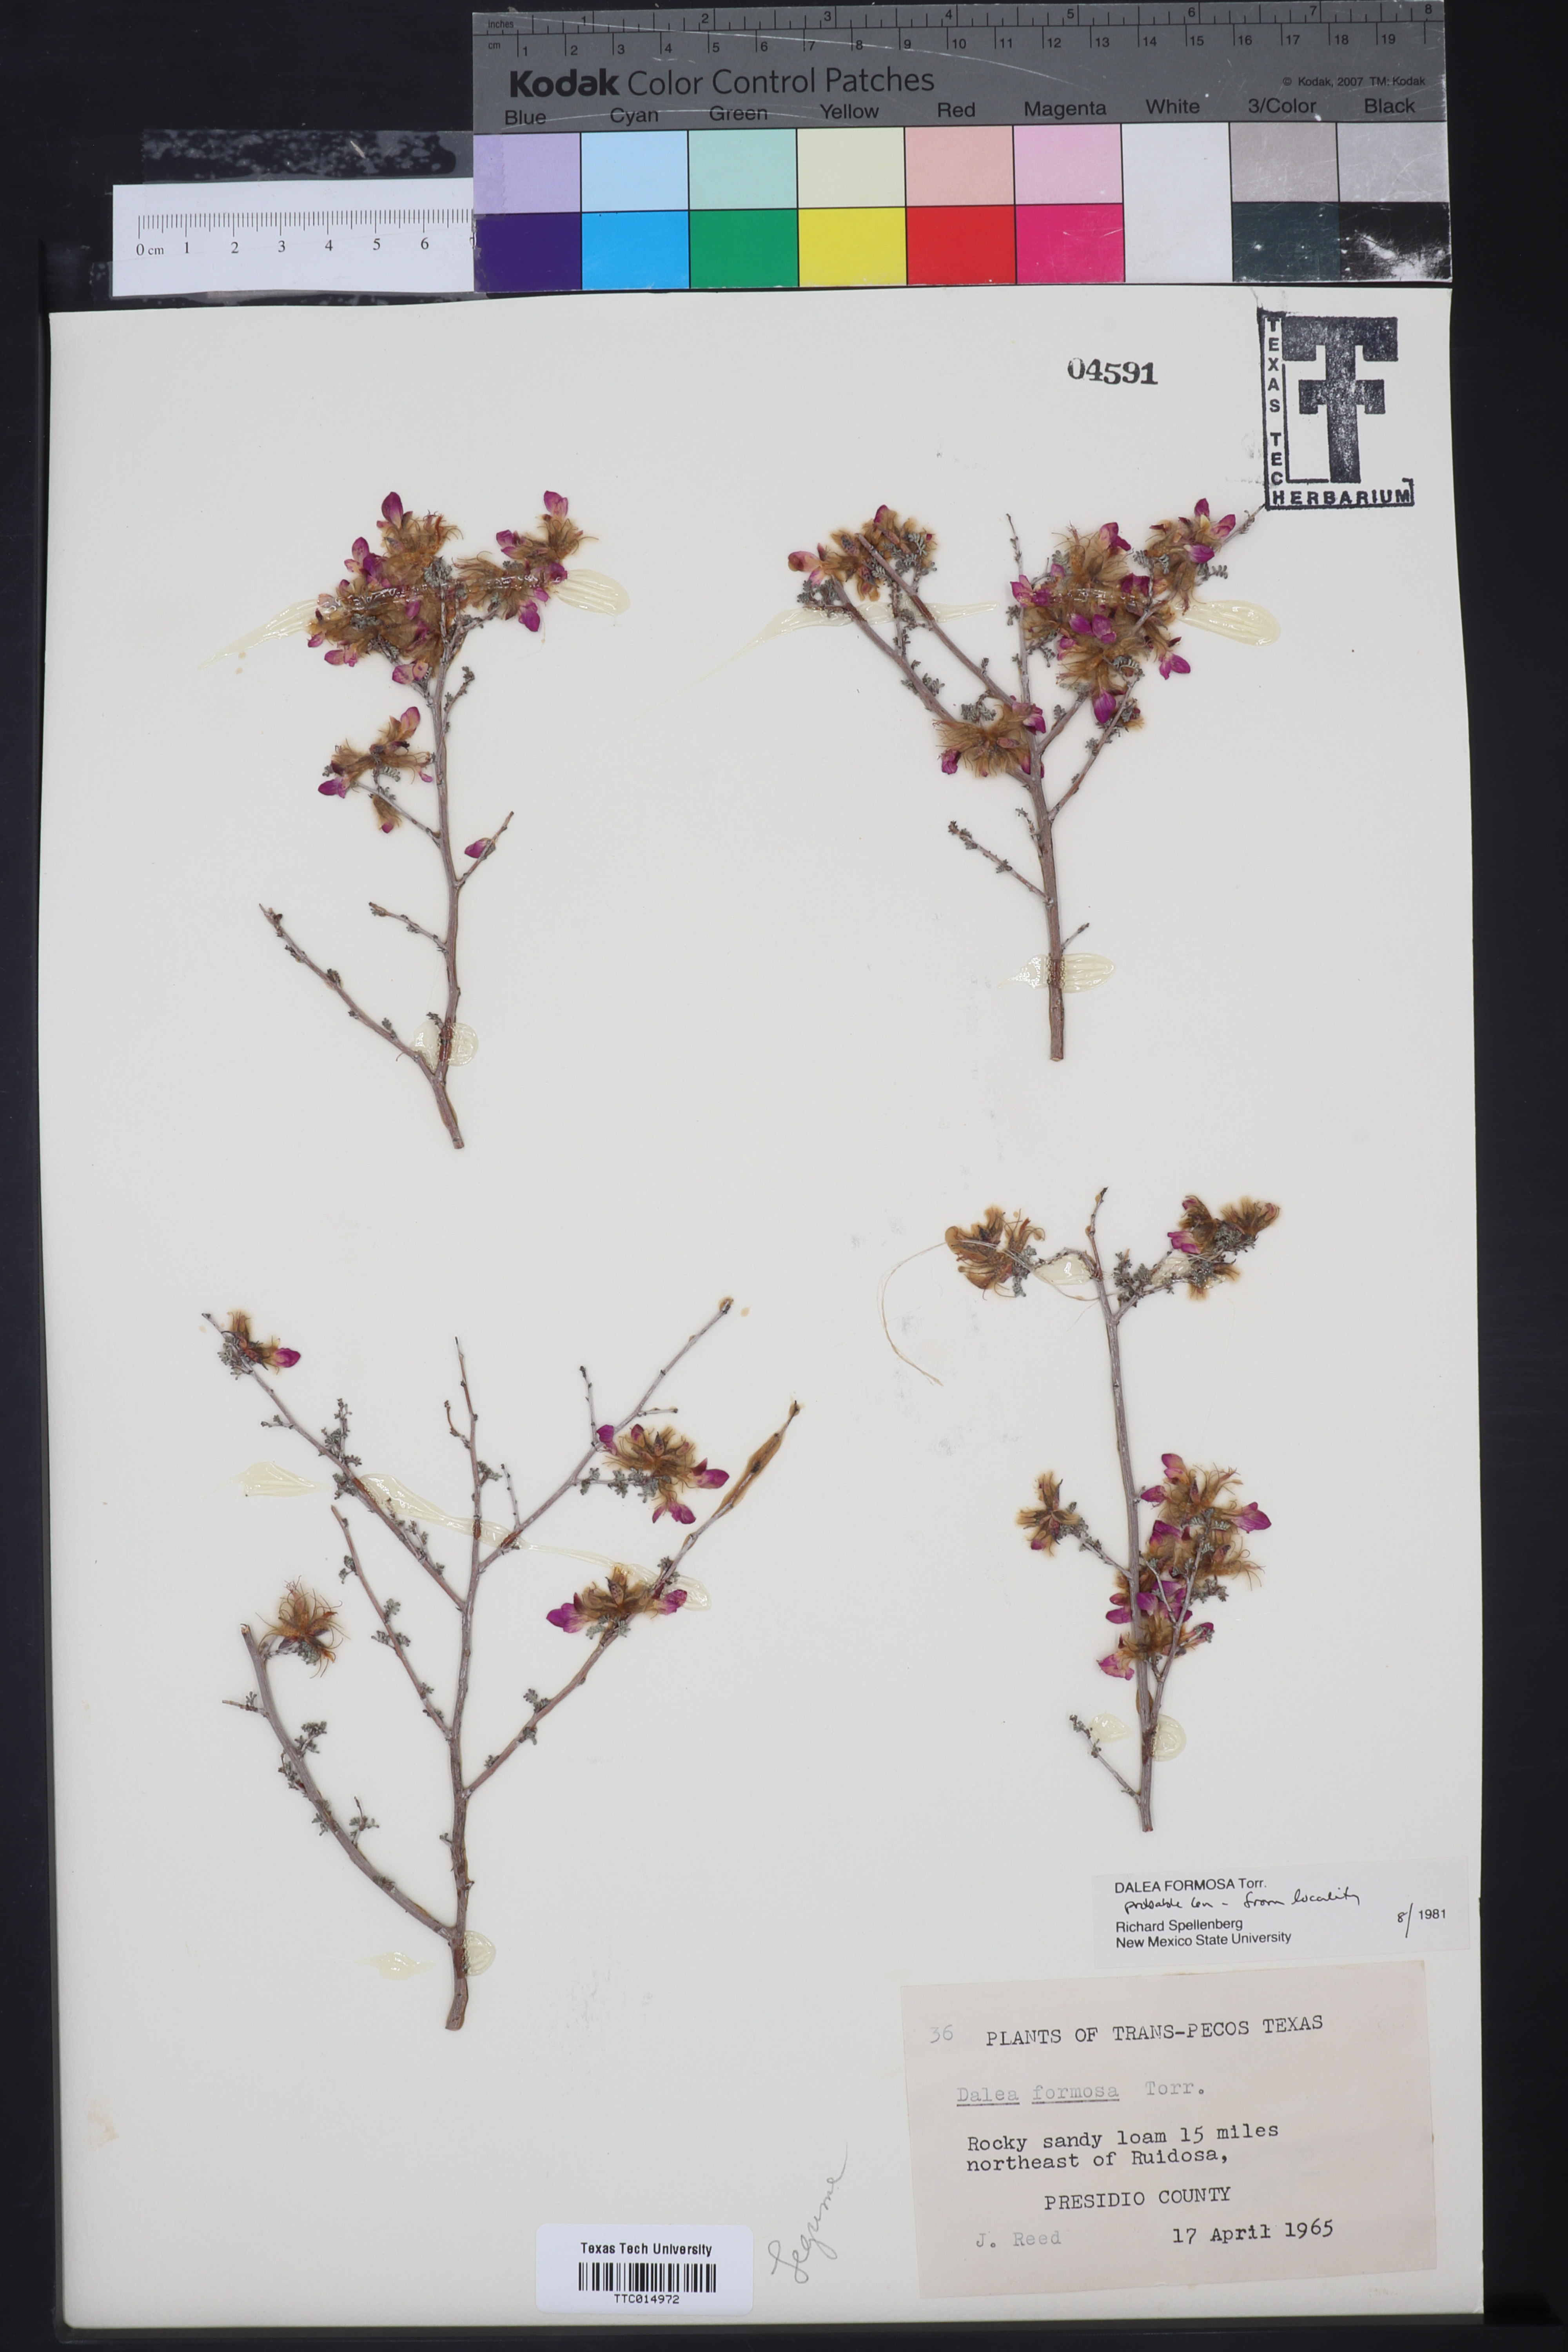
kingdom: Plantae
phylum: Tracheophyta
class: Magnoliopsida
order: Fabales
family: Fabaceae
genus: Dalea
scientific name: Dalea formosa
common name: Feather-plume dalea
